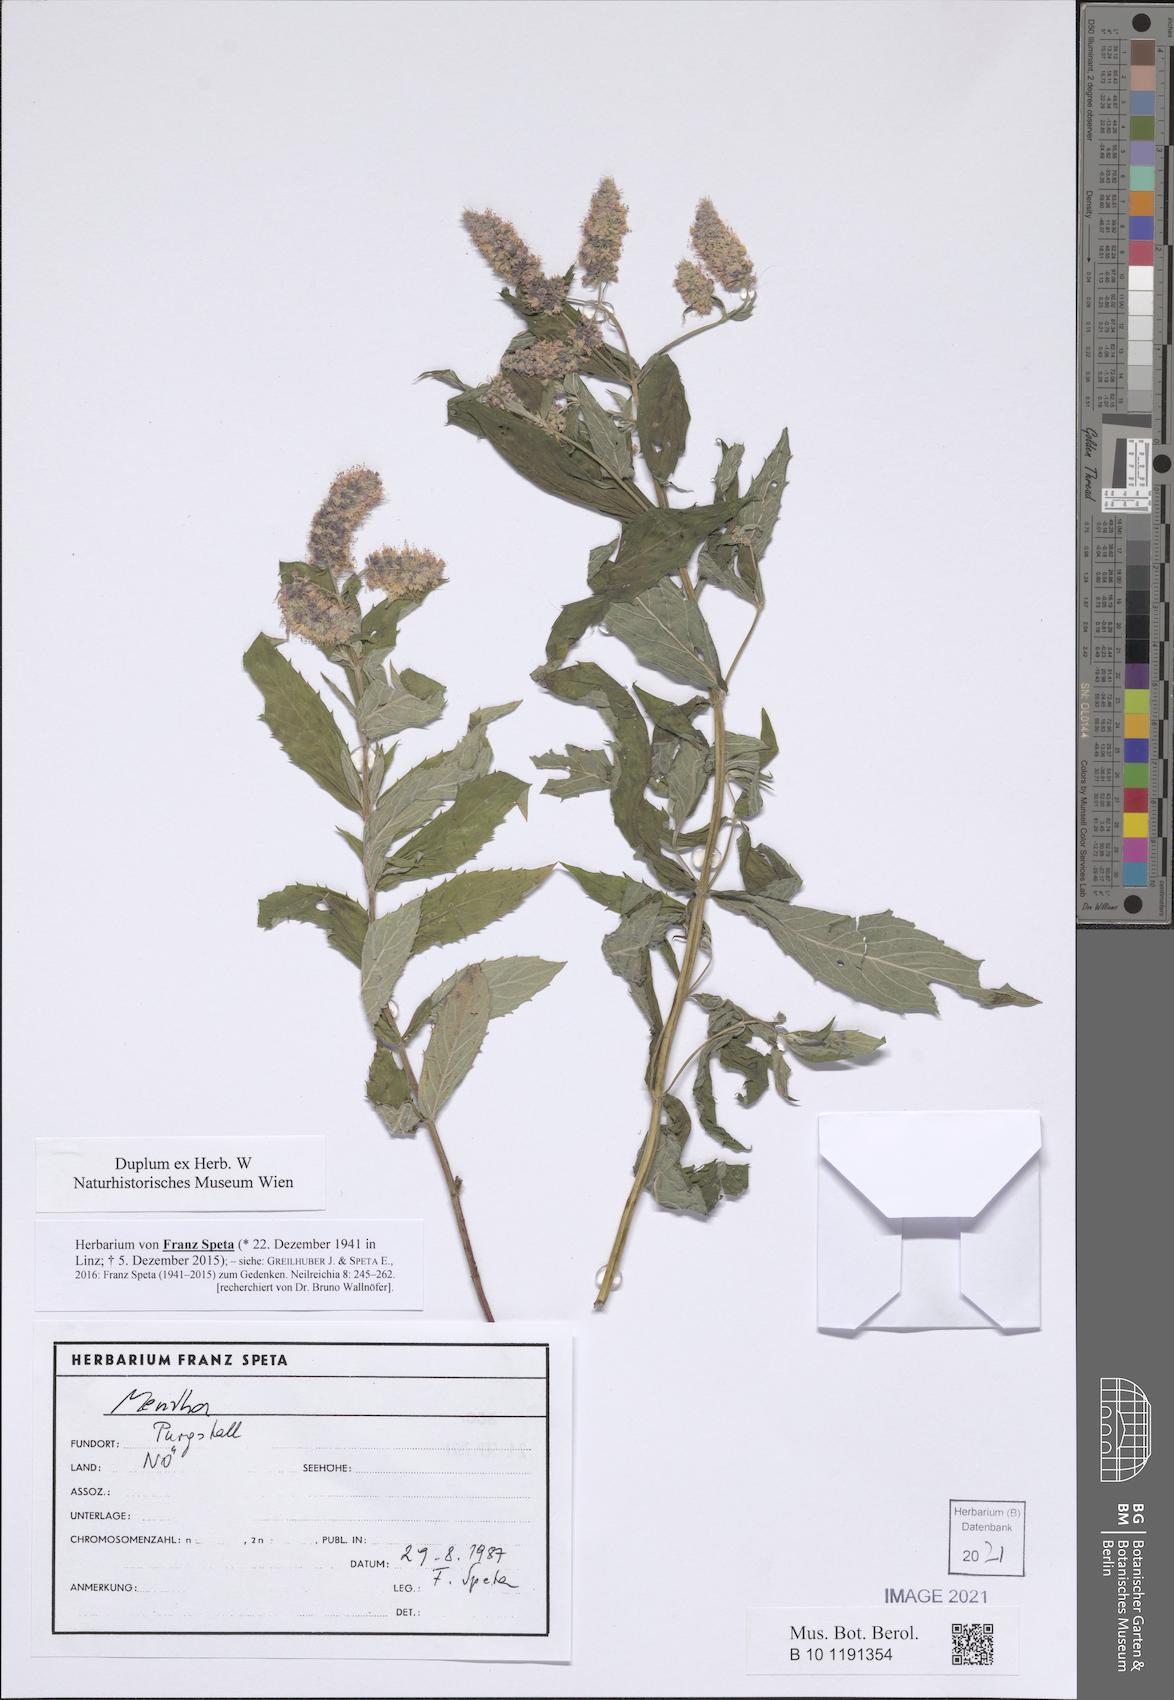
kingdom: Plantae
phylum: Tracheophyta
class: Magnoliopsida
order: Lamiales
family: Lamiaceae
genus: Mentha
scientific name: Mentha
